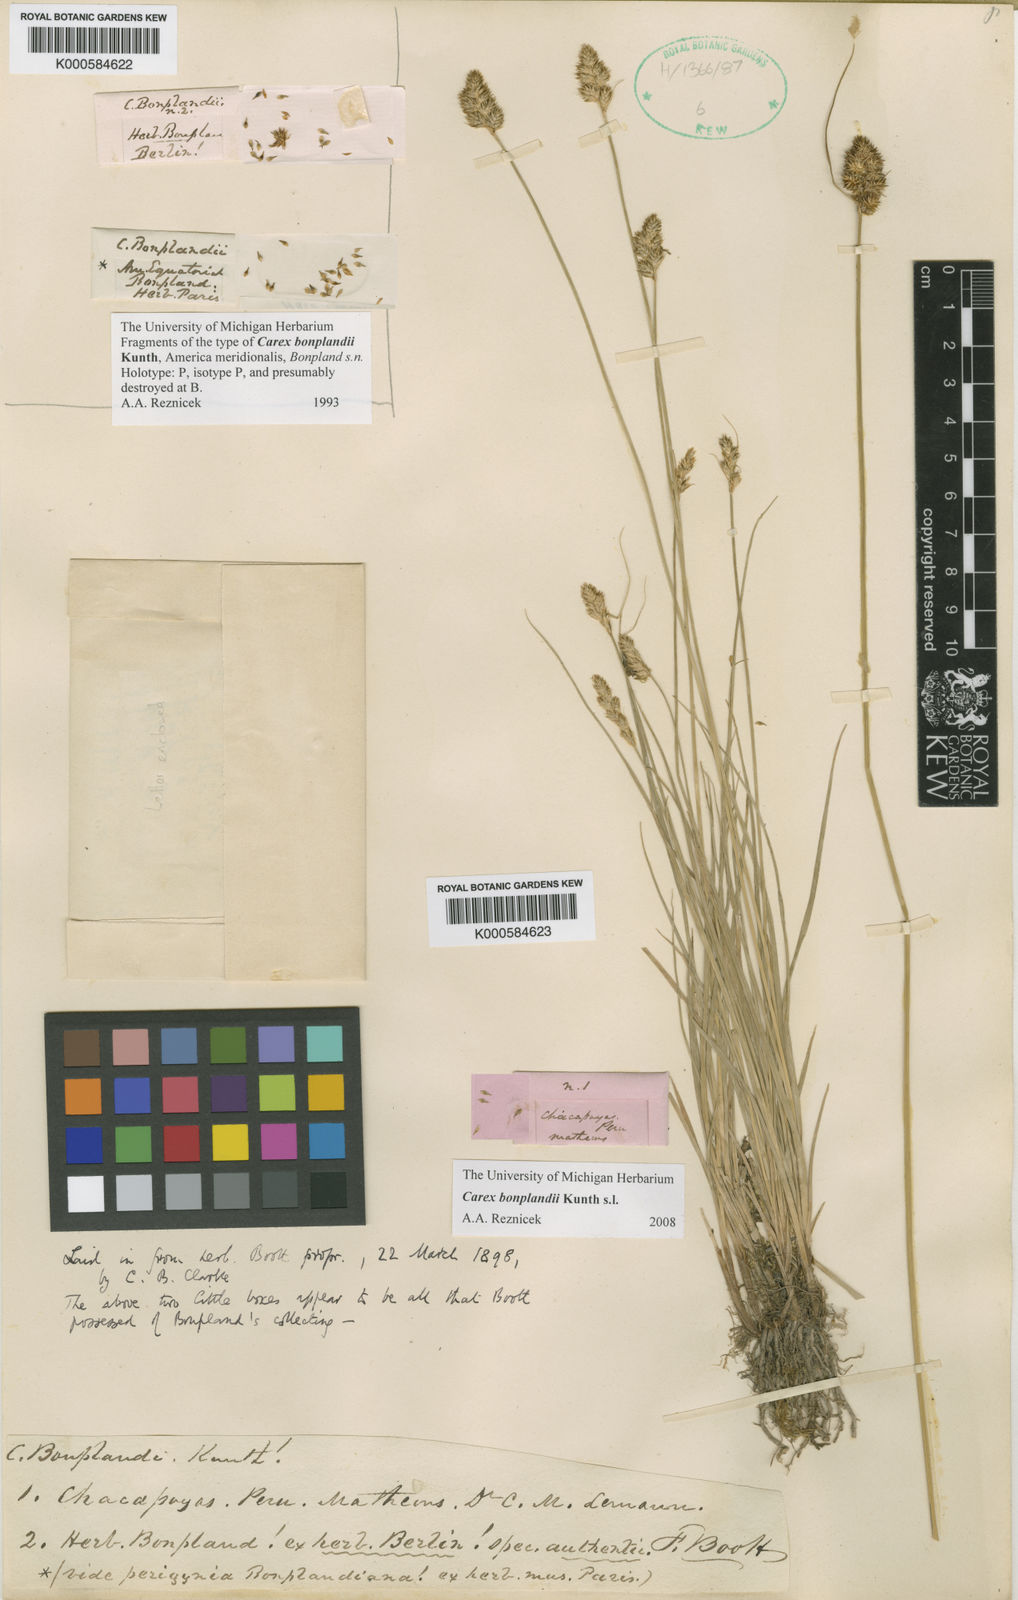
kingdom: Plantae
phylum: Tracheophyta
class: Liliopsida
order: Poales
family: Cyperaceae
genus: Carex
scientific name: Carex bonplandii
